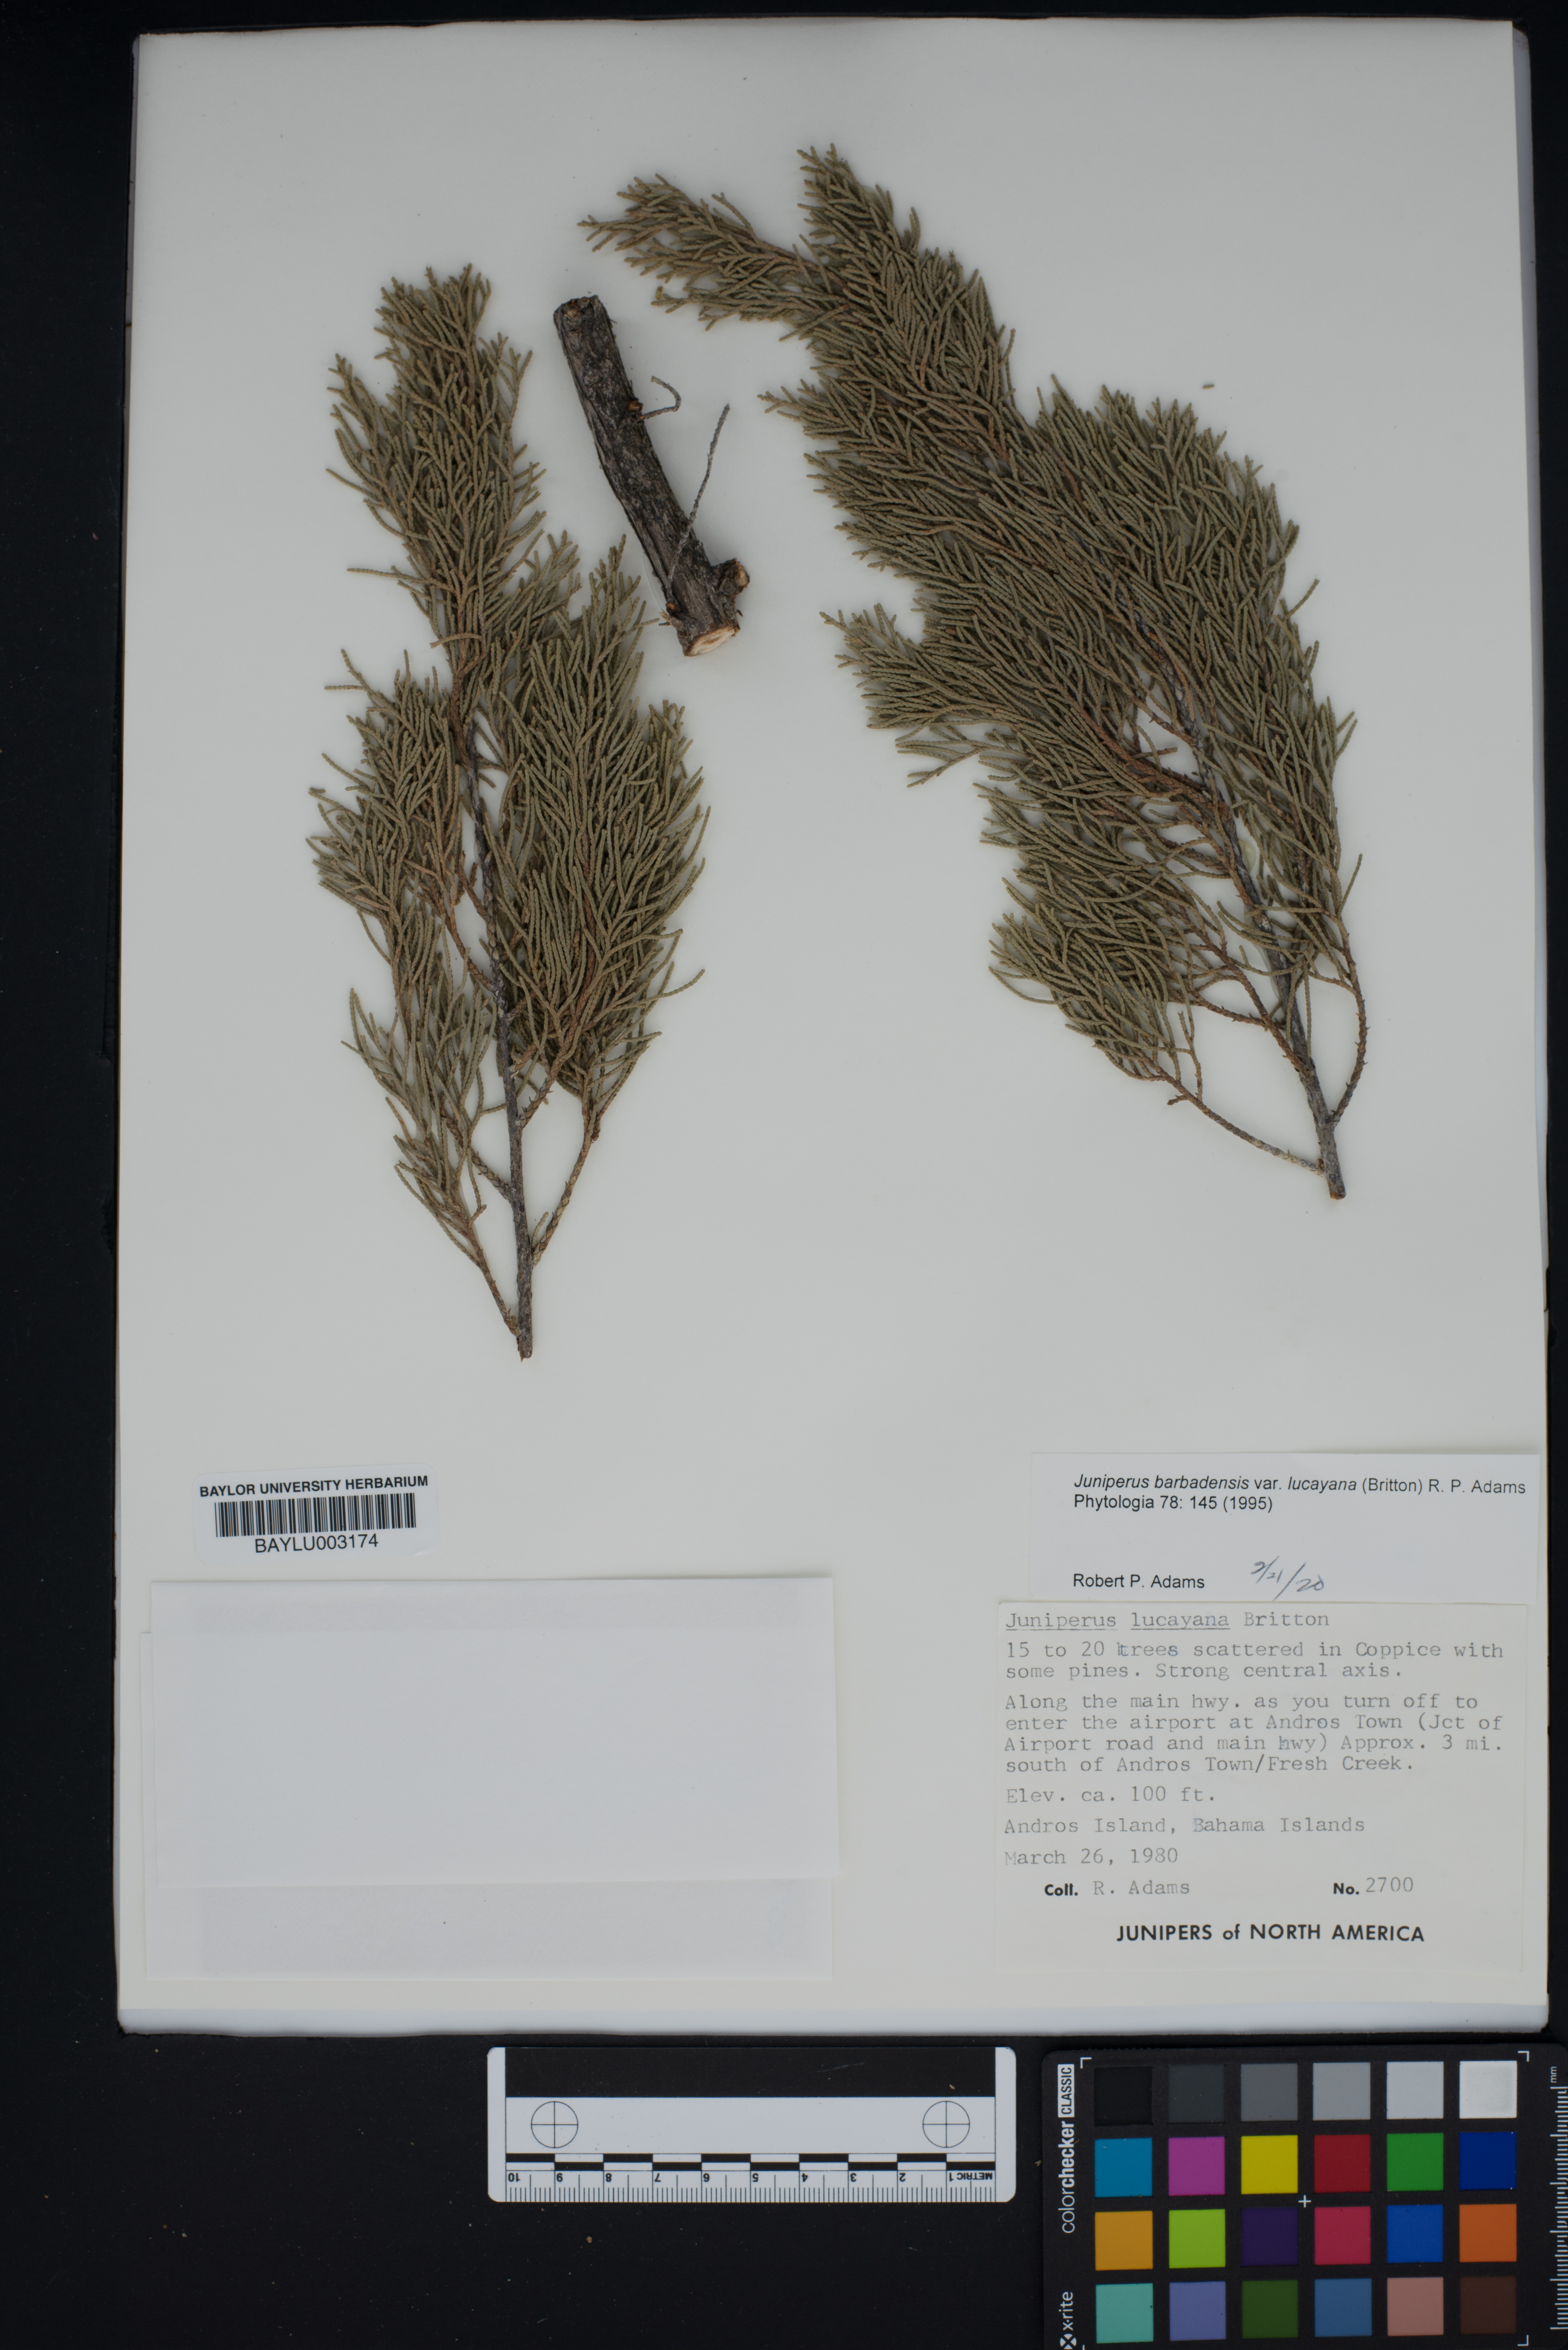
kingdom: Plantae
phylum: Tracheophyta
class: Pinopsida
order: Pinales
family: Cupressaceae
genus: Juniperus
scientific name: Juniperus barbadensis
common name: West indies juniper
